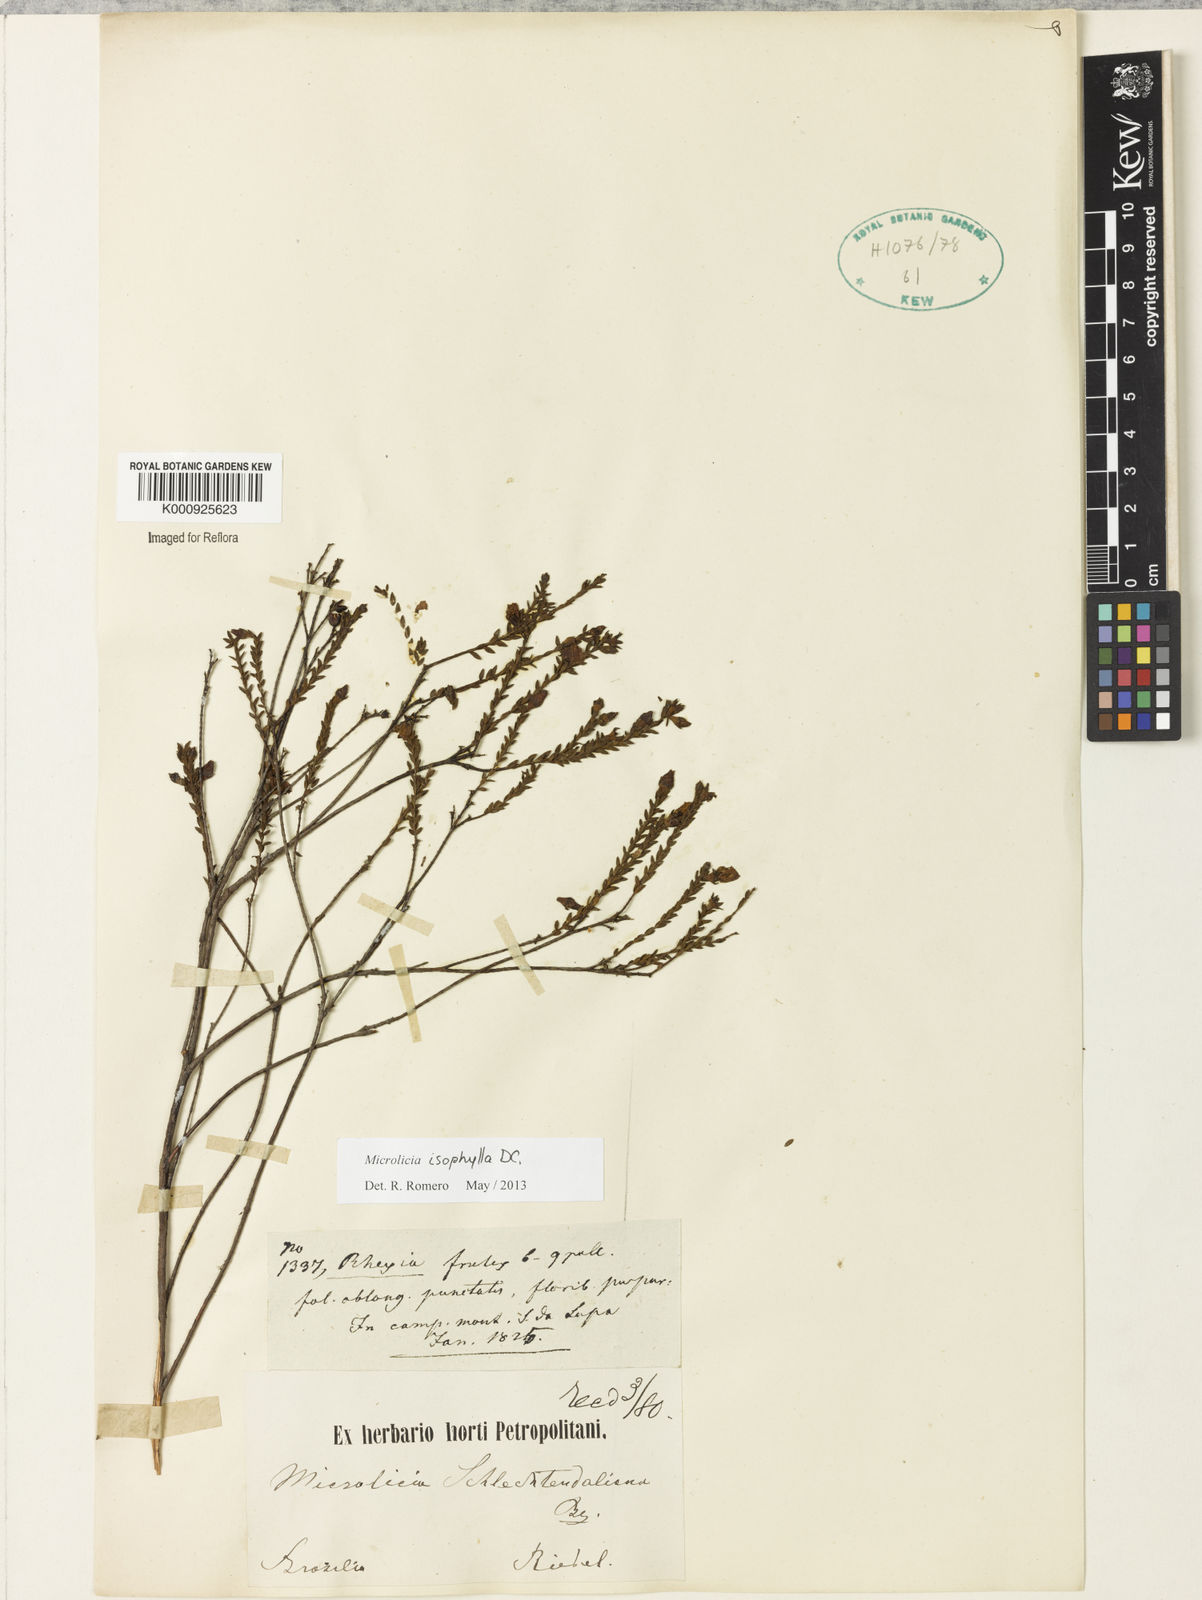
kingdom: Plantae
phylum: Tracheophyta
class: Magnoliopsida
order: Myrtales
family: Melastomataceae
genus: Microlicia
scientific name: Microlicia isophylla
